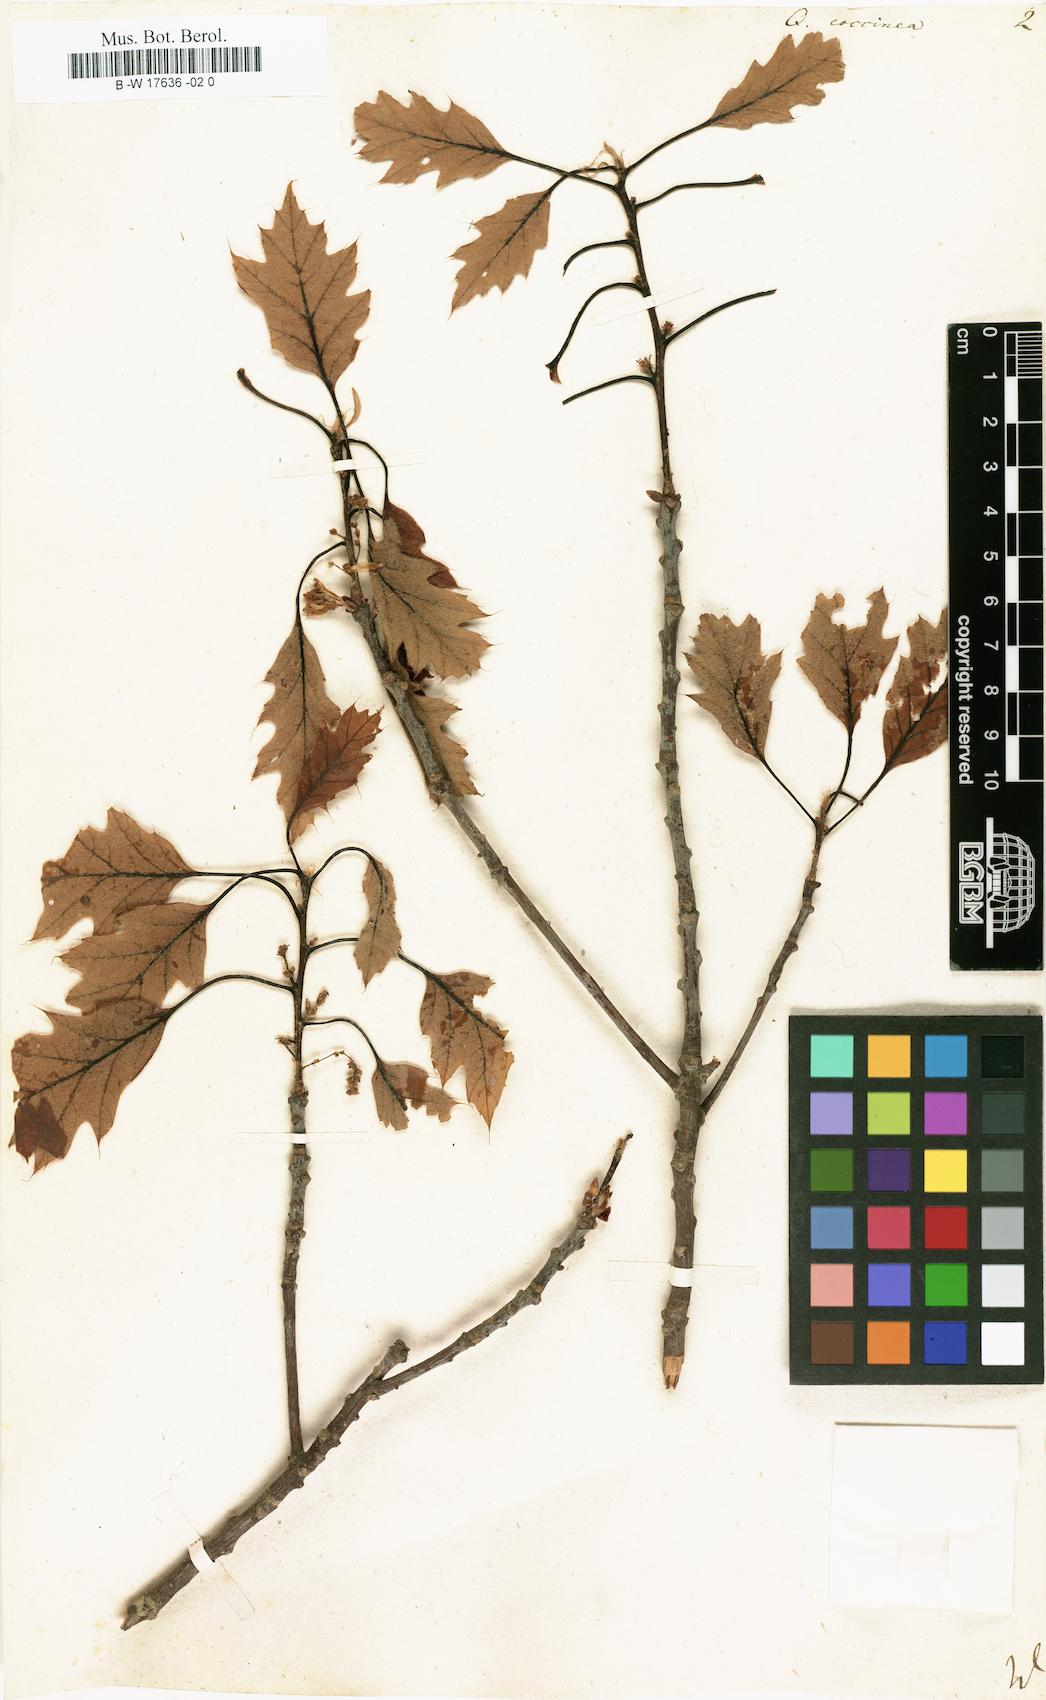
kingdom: Plantae
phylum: Tracheophyta
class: Magnoliopsida
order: Fagales
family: Fagaceae
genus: Quercus
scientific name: Quercus coccinea
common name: Scarlet oak
